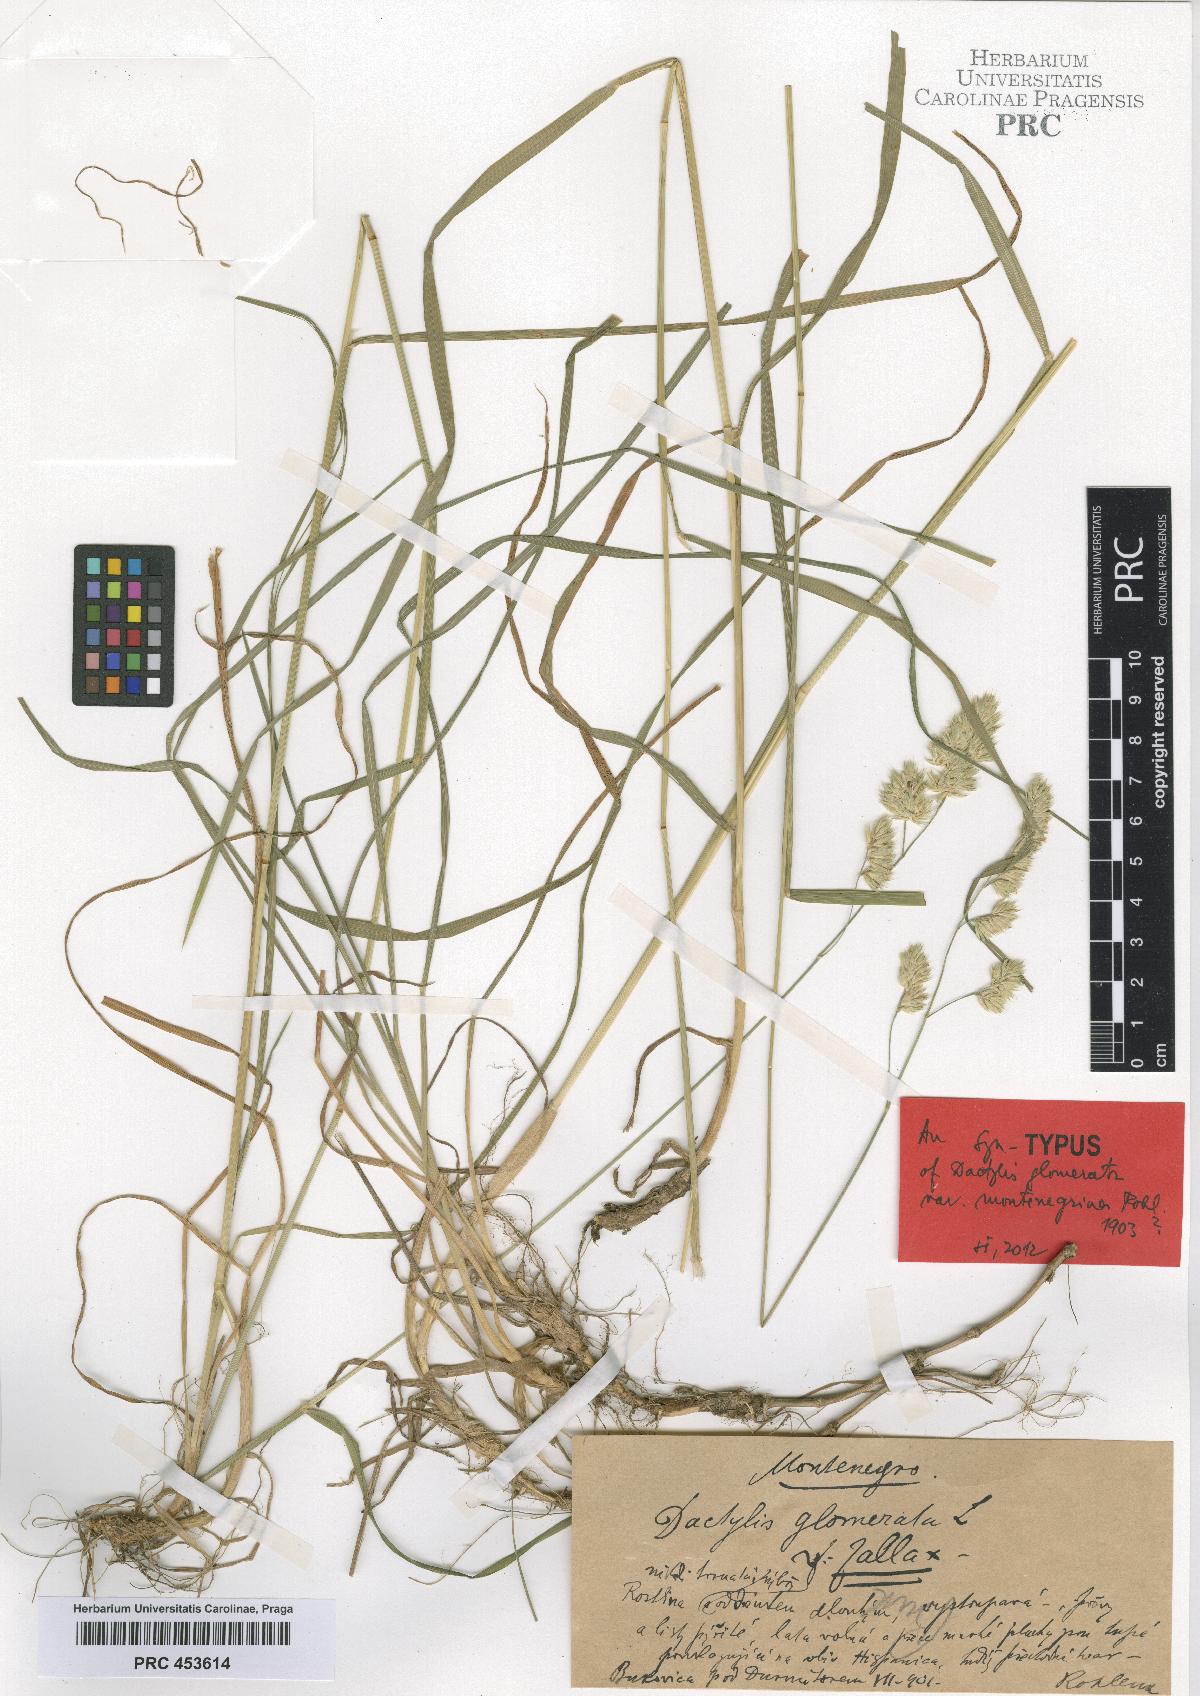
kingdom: Plantae
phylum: Tracheophyta
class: Liliopsida
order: Poales
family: Poaceae
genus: Dactylis
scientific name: Dactylis glomerata
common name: Orchardgrass
